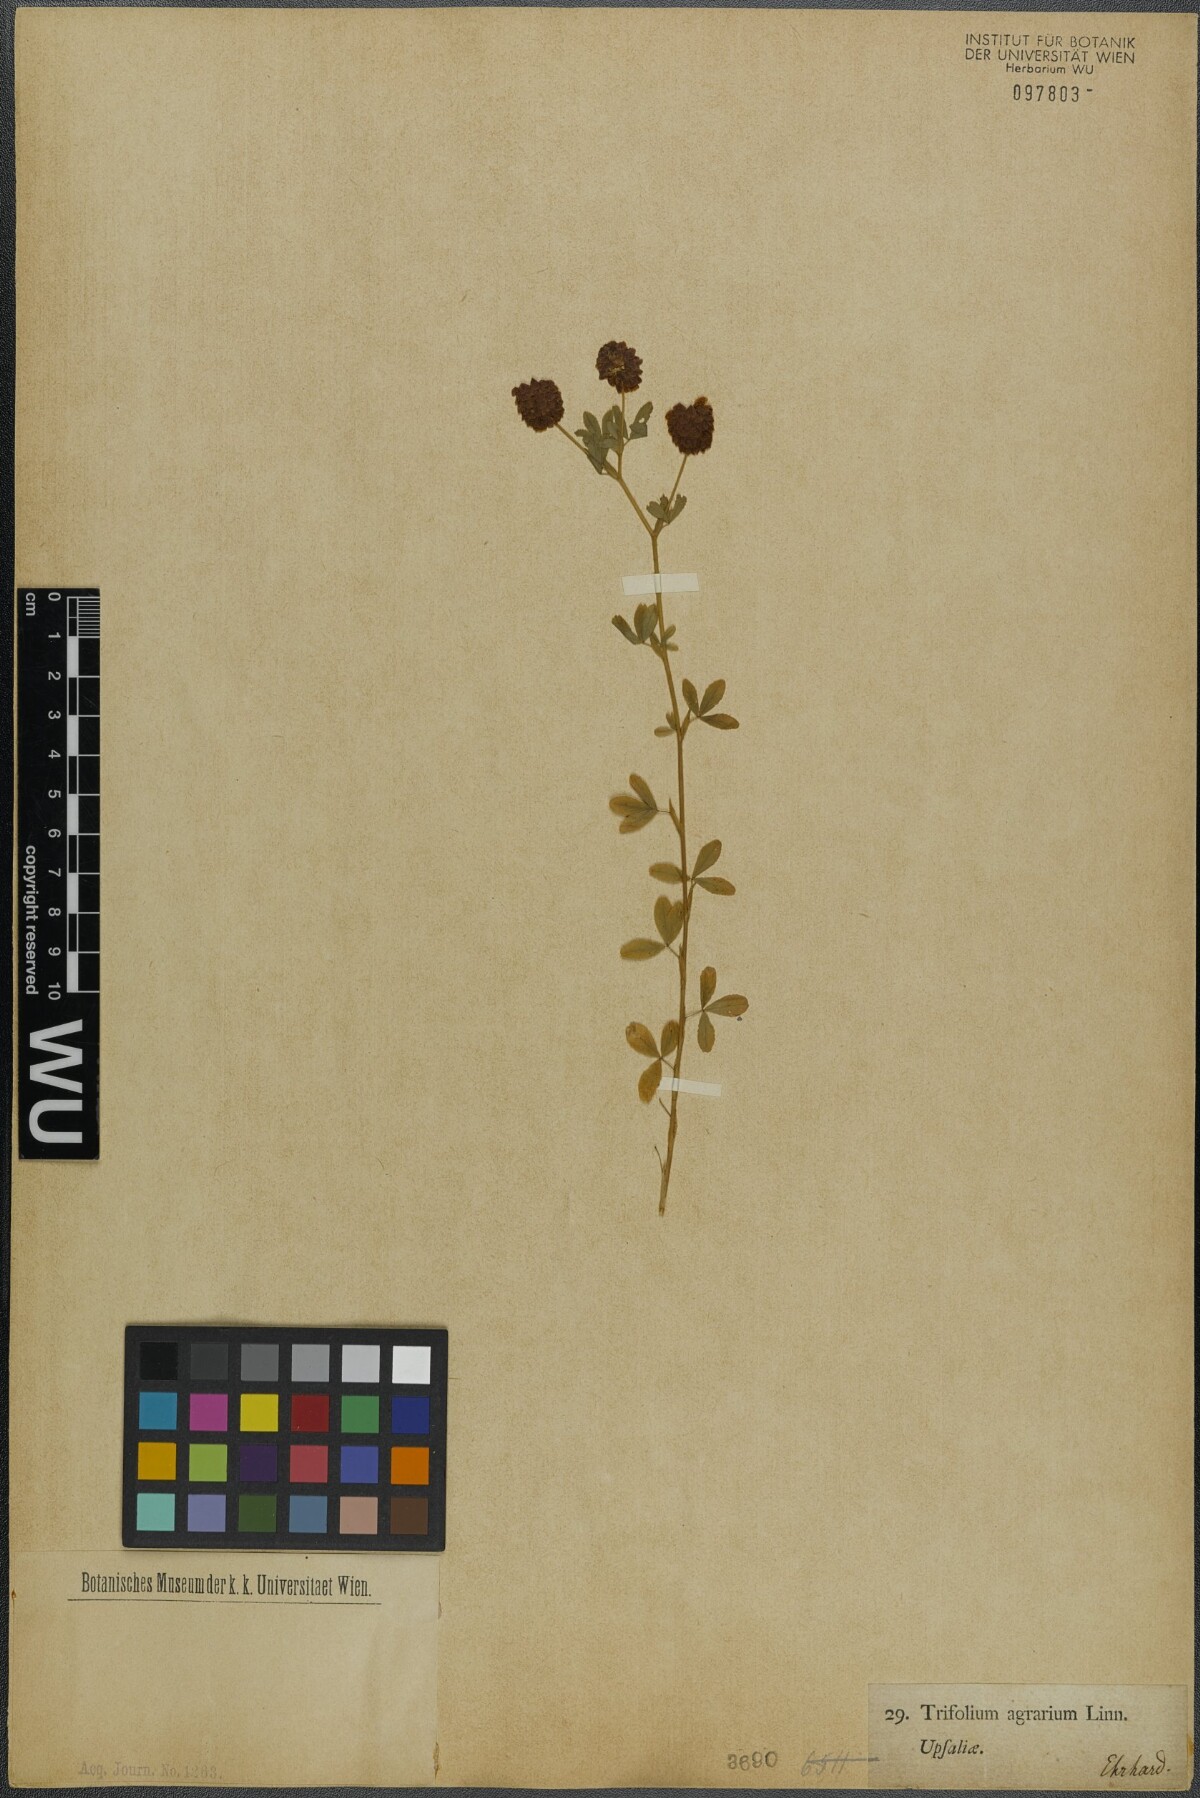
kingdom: Plantae
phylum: Tracheophyta
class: Magnoliopsida
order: Fabales
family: Fabaceae
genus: Trifolium
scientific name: Trifolium aureum
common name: Golden clover
